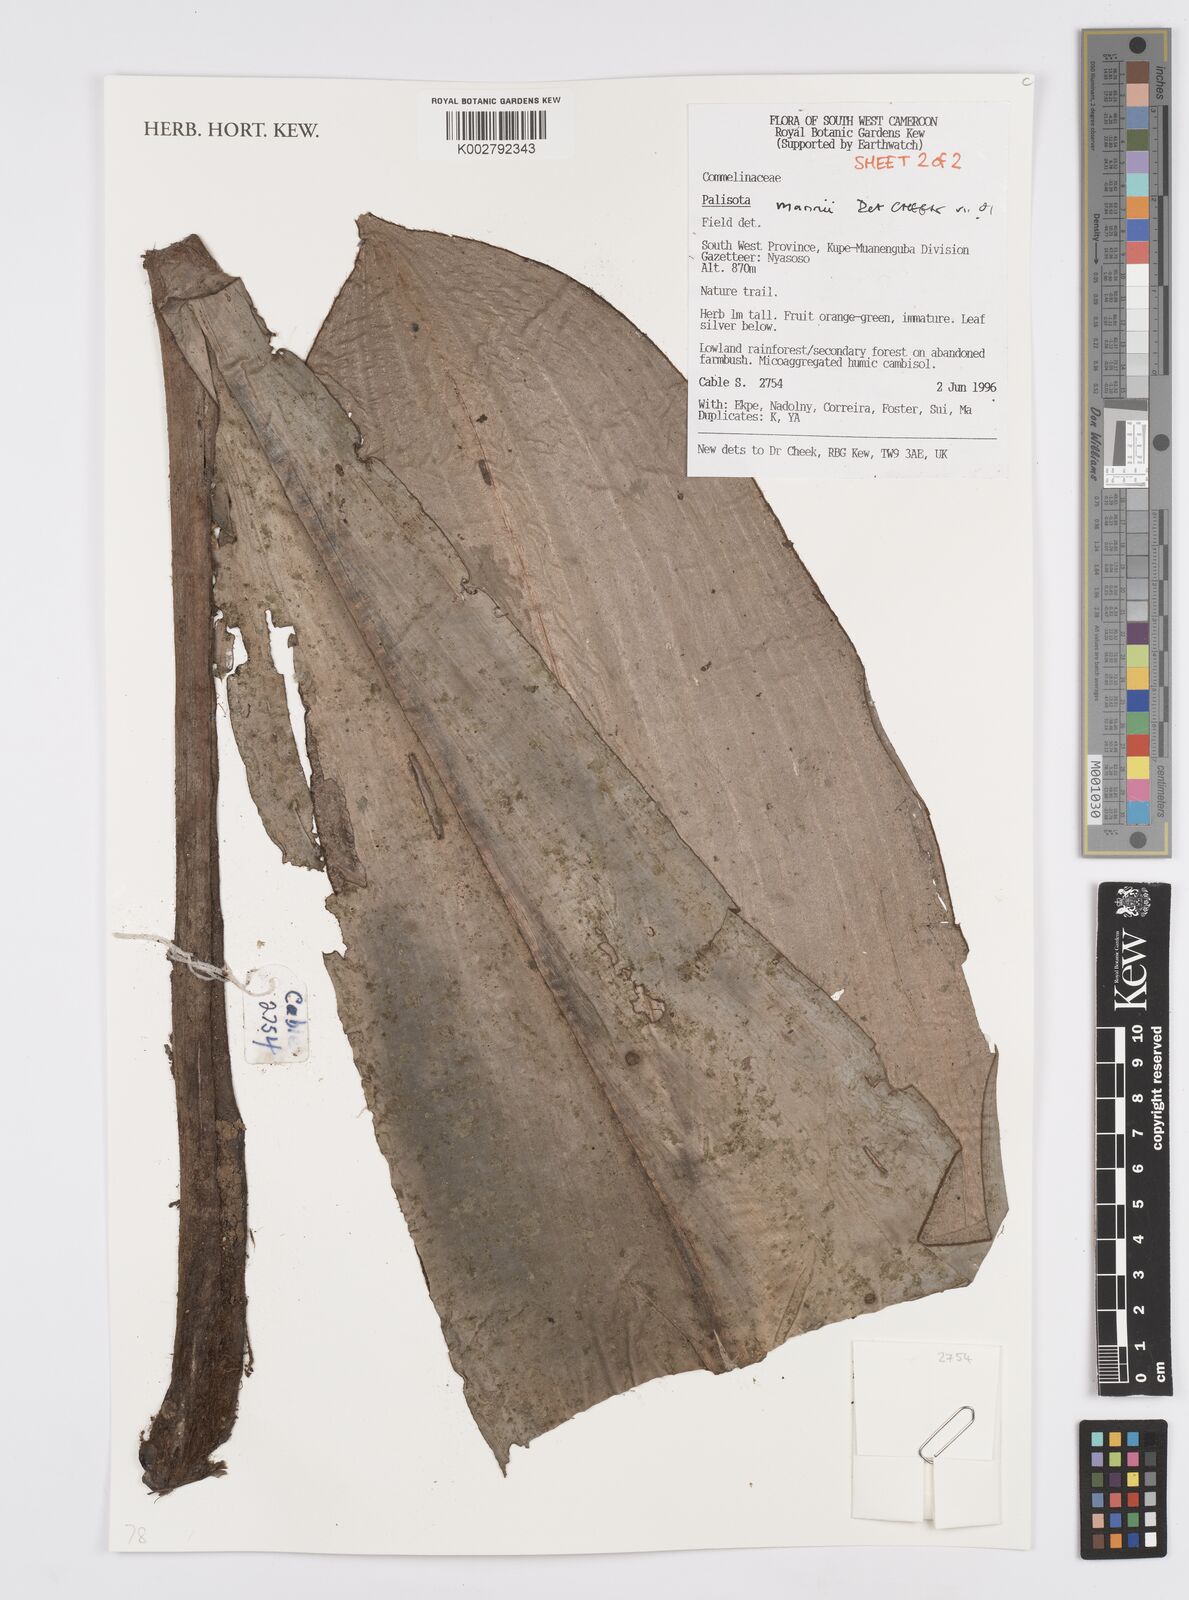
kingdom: Plantae
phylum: Tracheophyta
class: Liliopsida
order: Commelinales
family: Commelinaceae
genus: Palisota
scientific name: Palisota mannii
